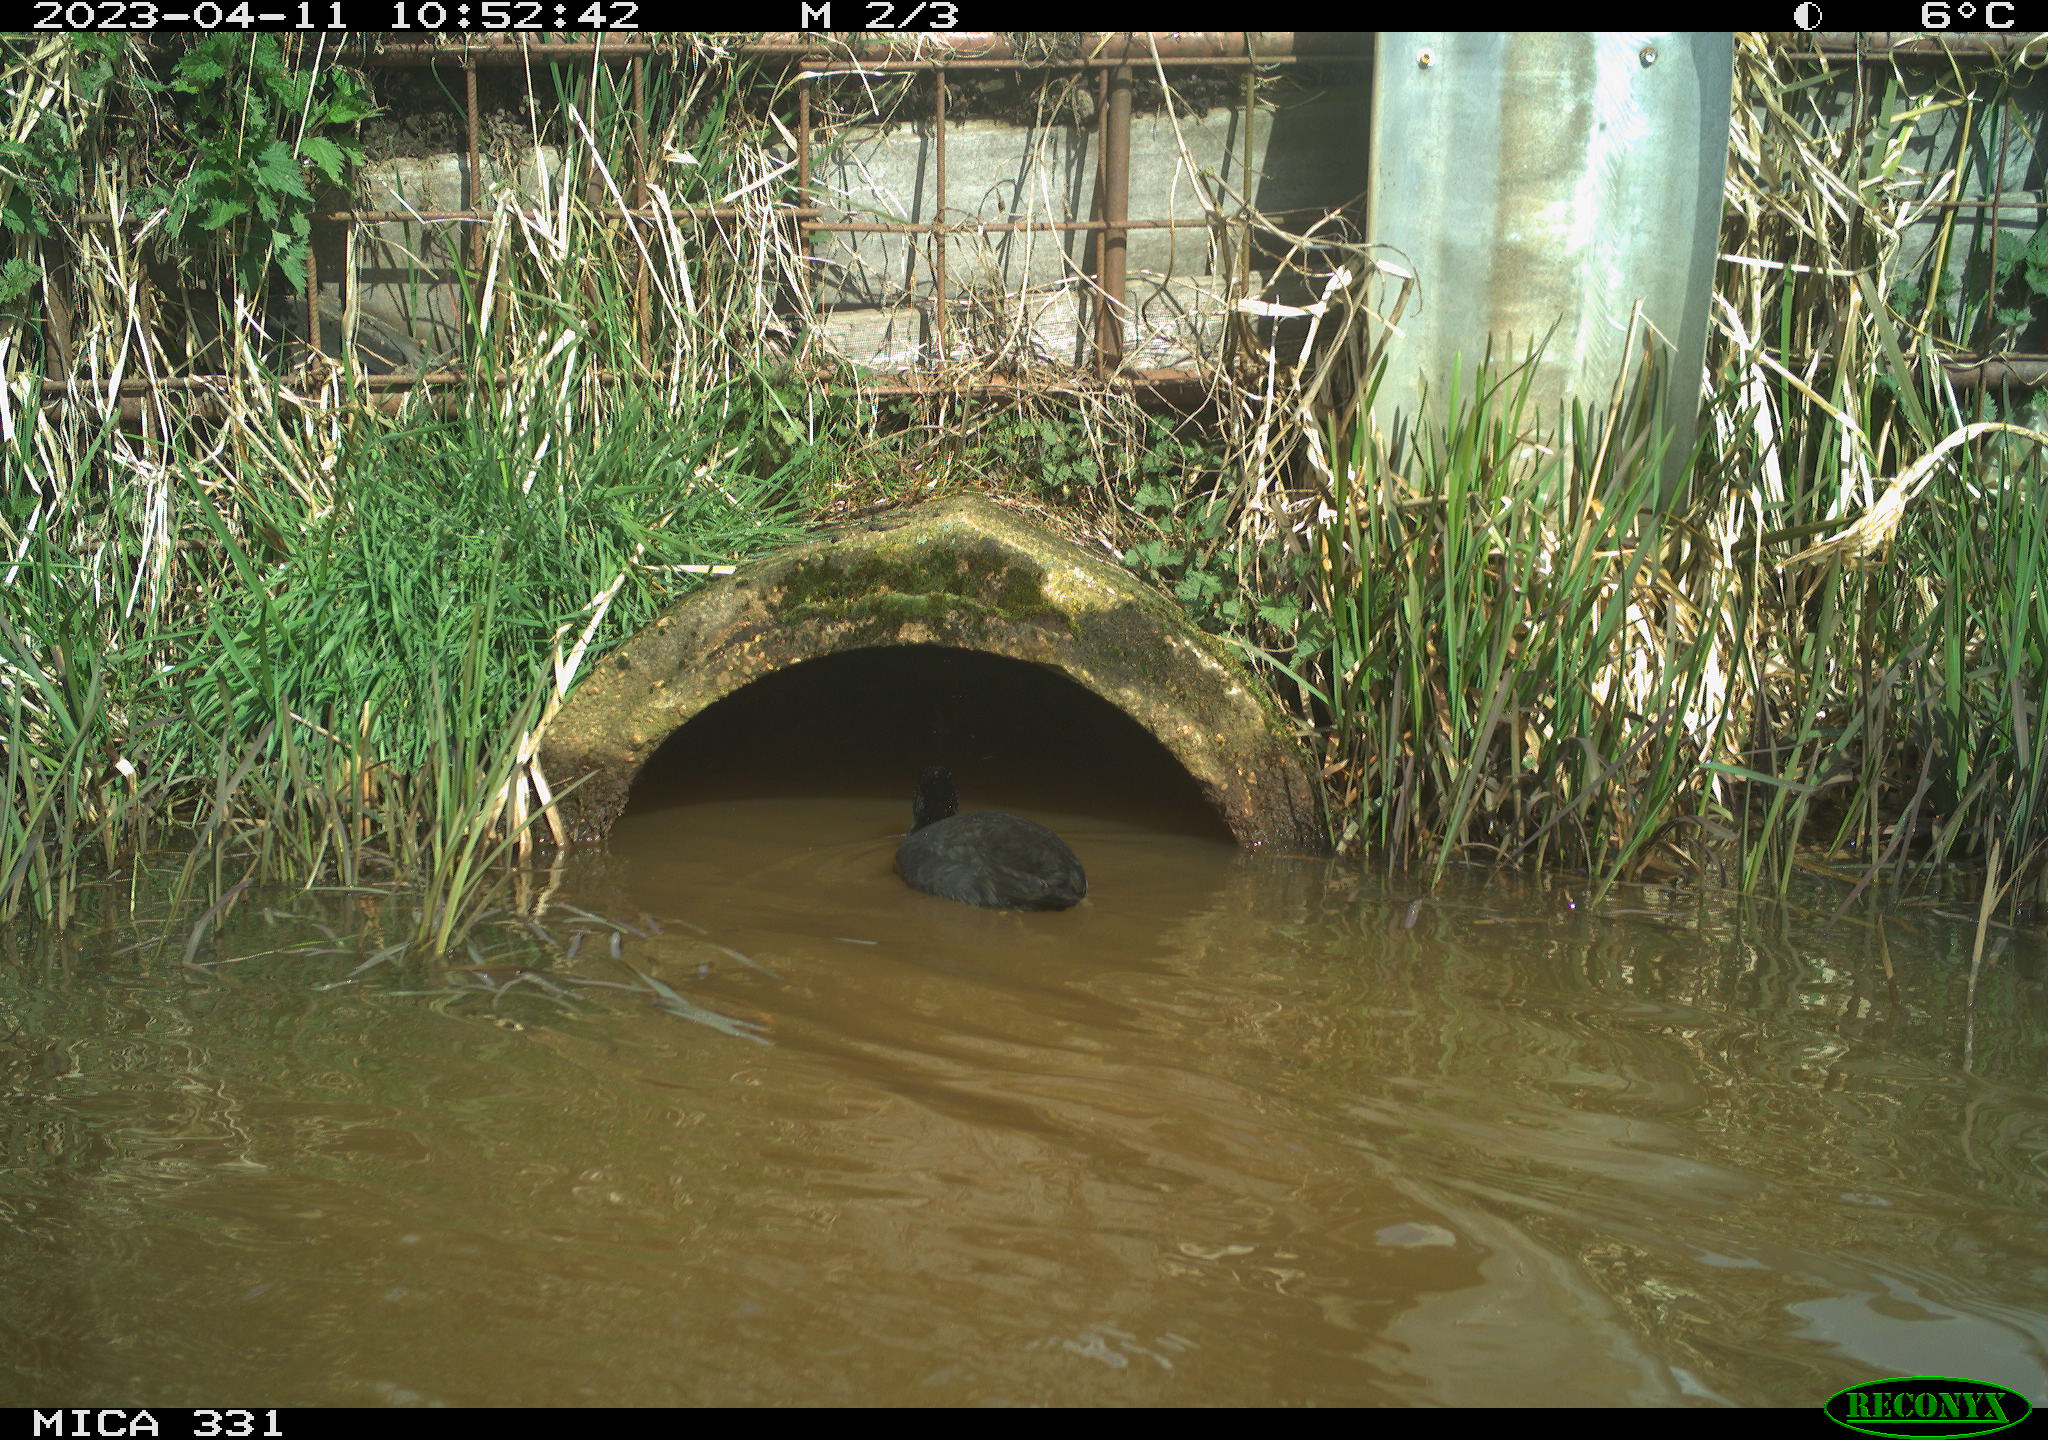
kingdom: Animalia
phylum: Chordata
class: Aves
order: Gruiformes
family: Rallidae
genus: Gallinula
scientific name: Gallinula chloropus
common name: Common moorhen
